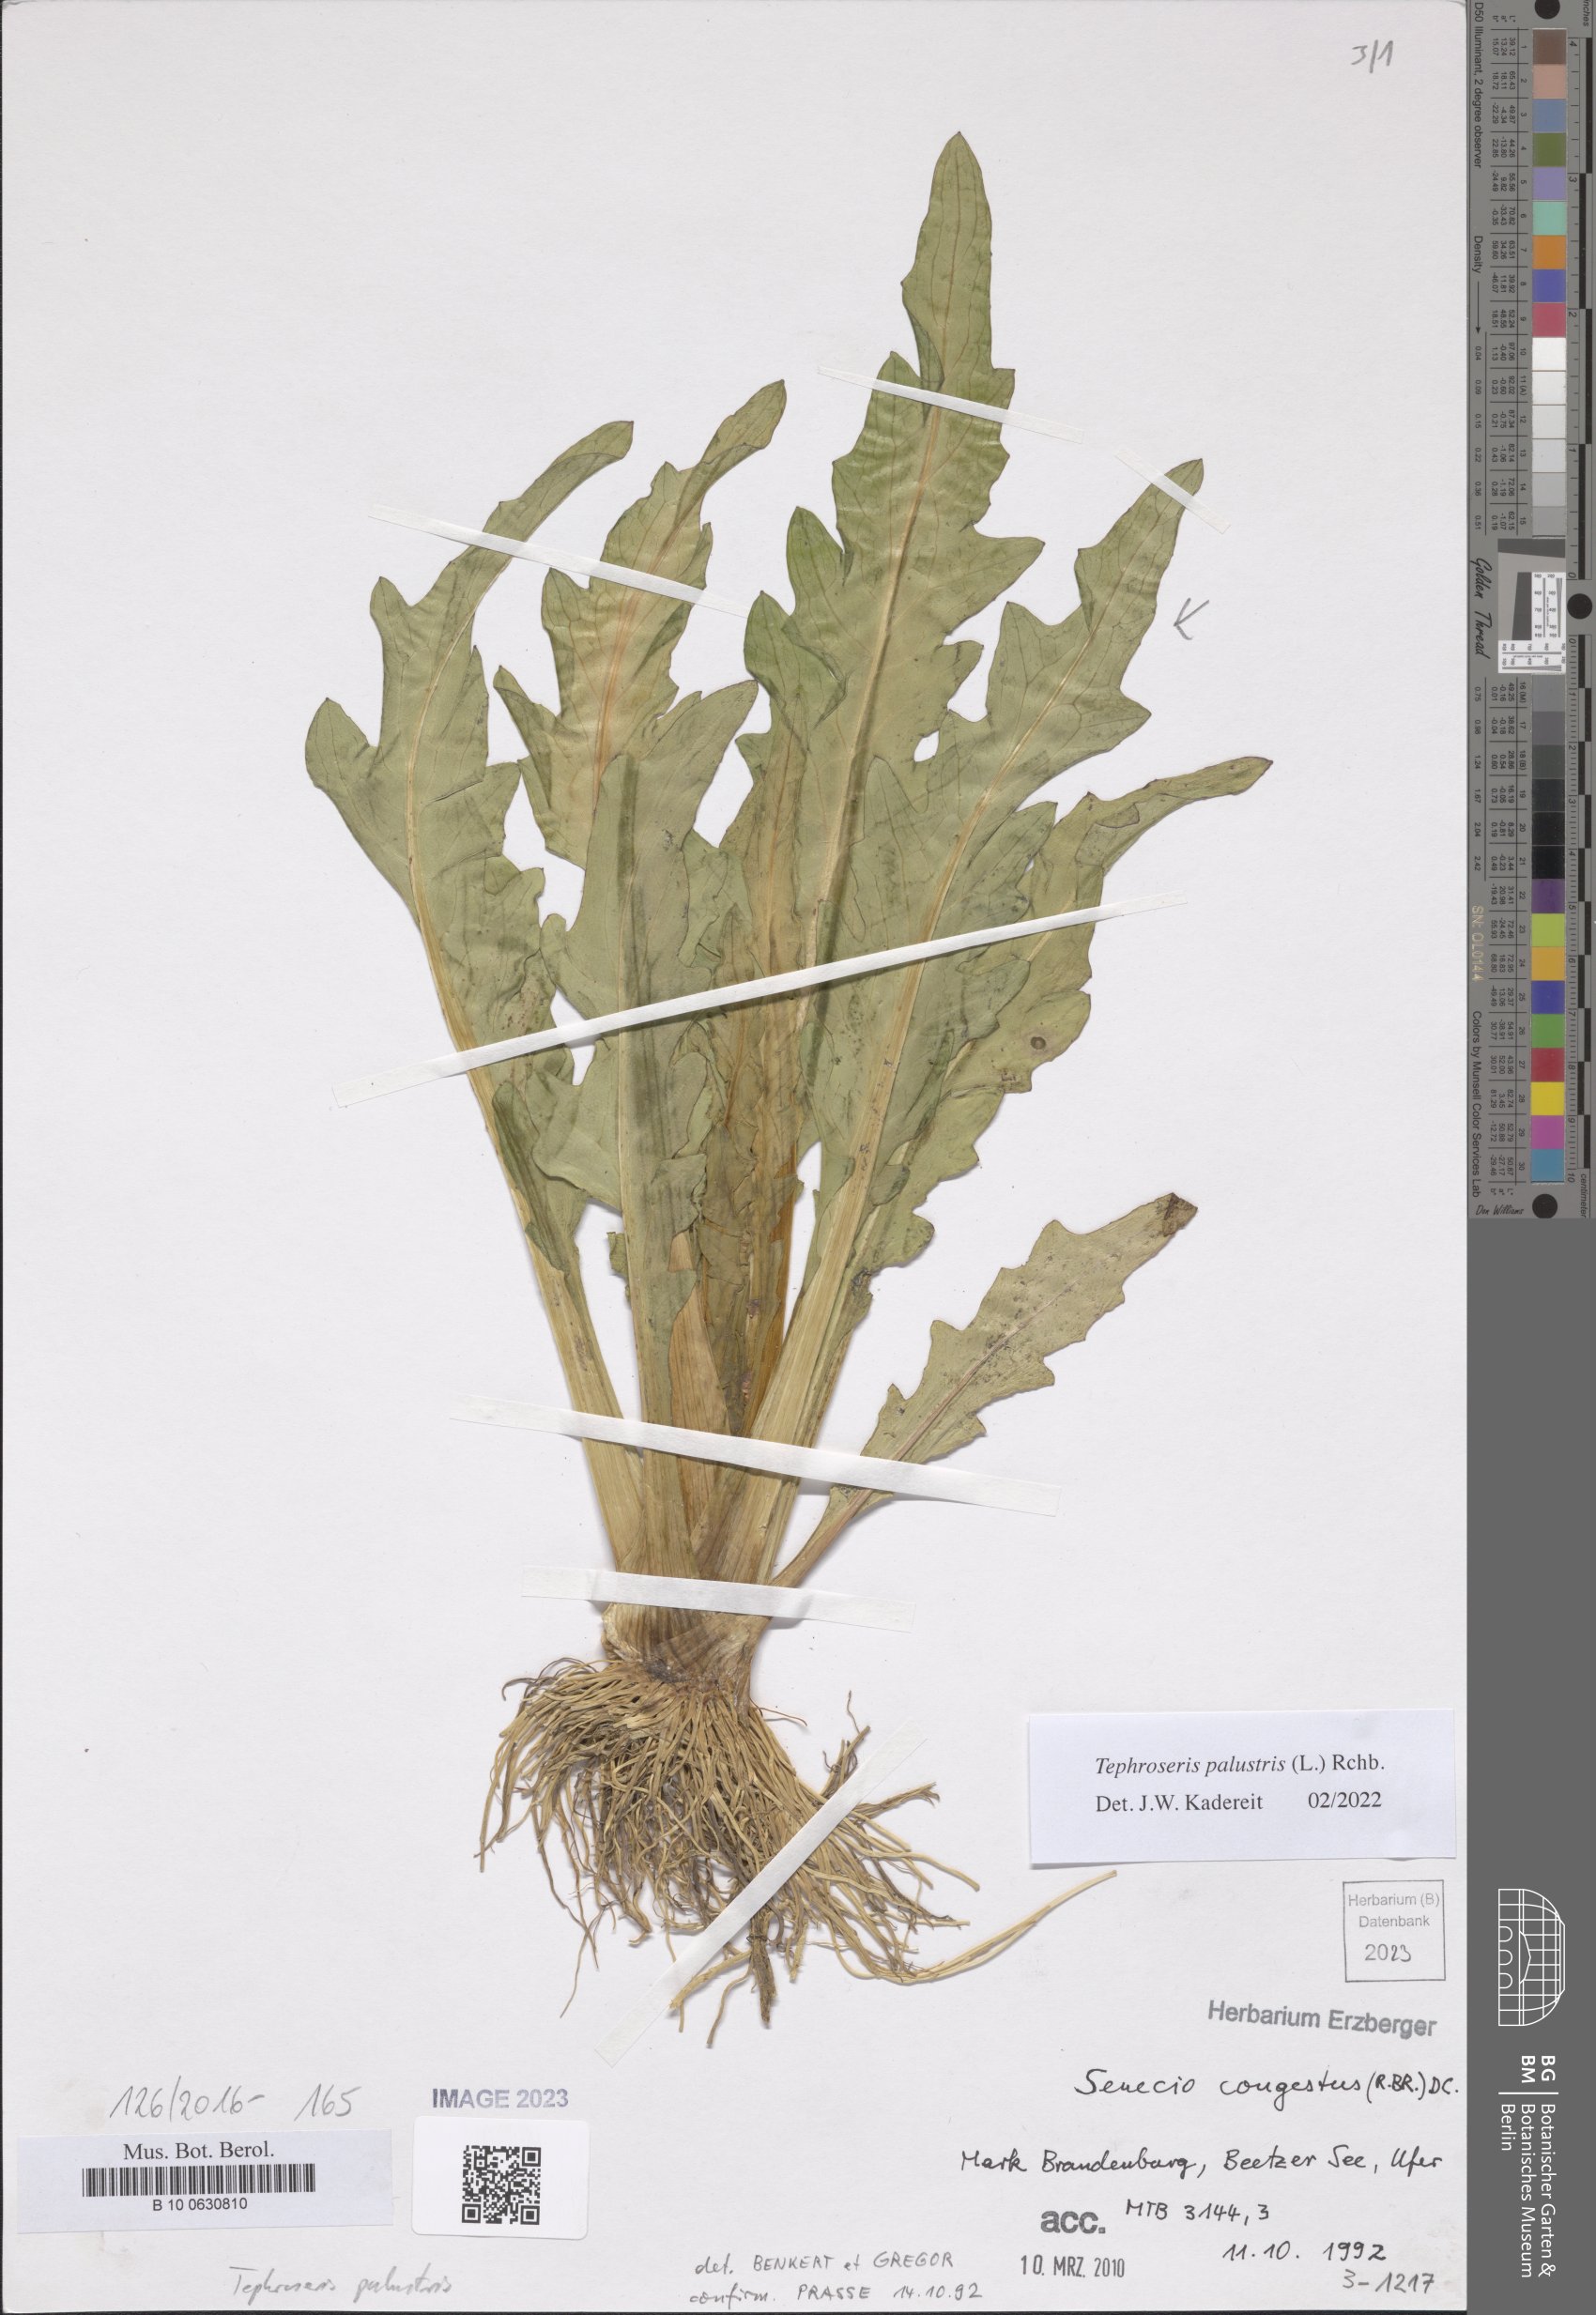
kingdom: Plantae
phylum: Tracheophyta
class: Magnoliopsida
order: Asterales
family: Asteraceae
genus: Tephroseris
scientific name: Tephroseris palustris
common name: Marsh fleawort
